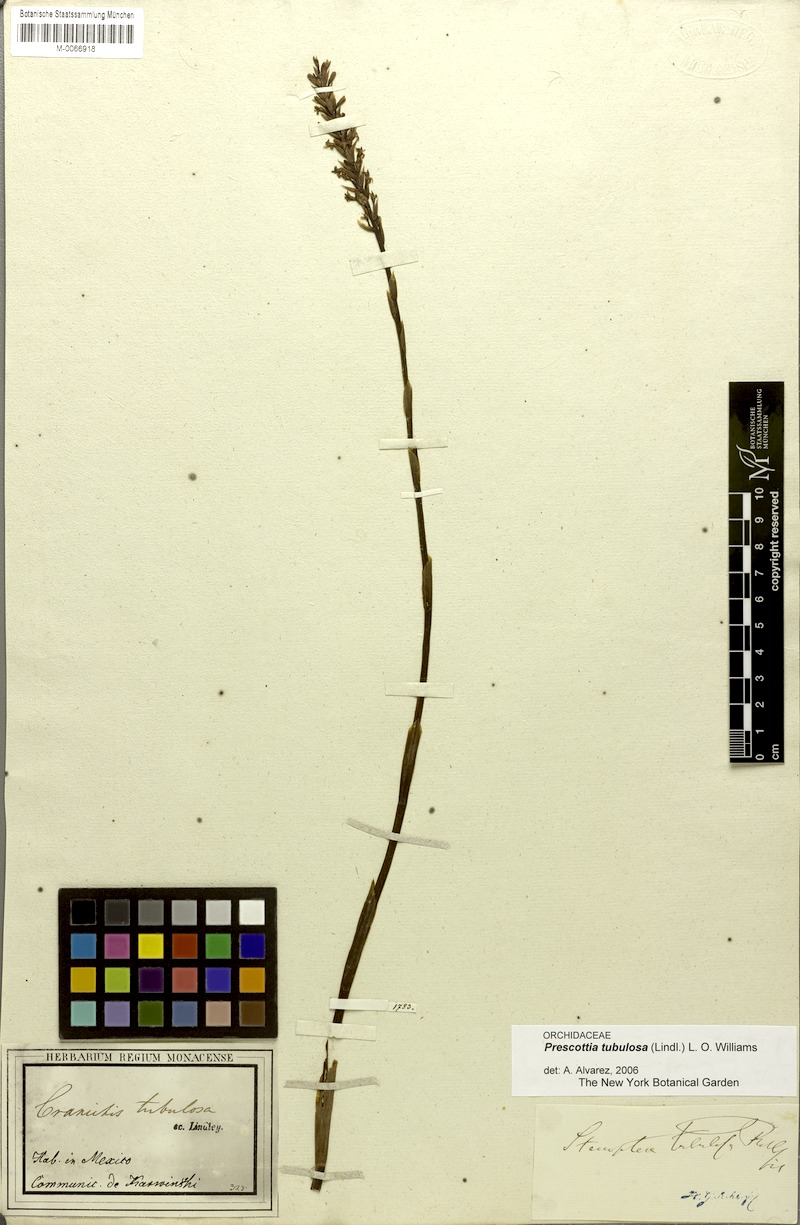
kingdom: Plantae
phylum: Tracheophyta
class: Liliopsida
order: Asparagales
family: Orchidaceae
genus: Galeoglossum
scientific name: Galeoglossum tubulosum
